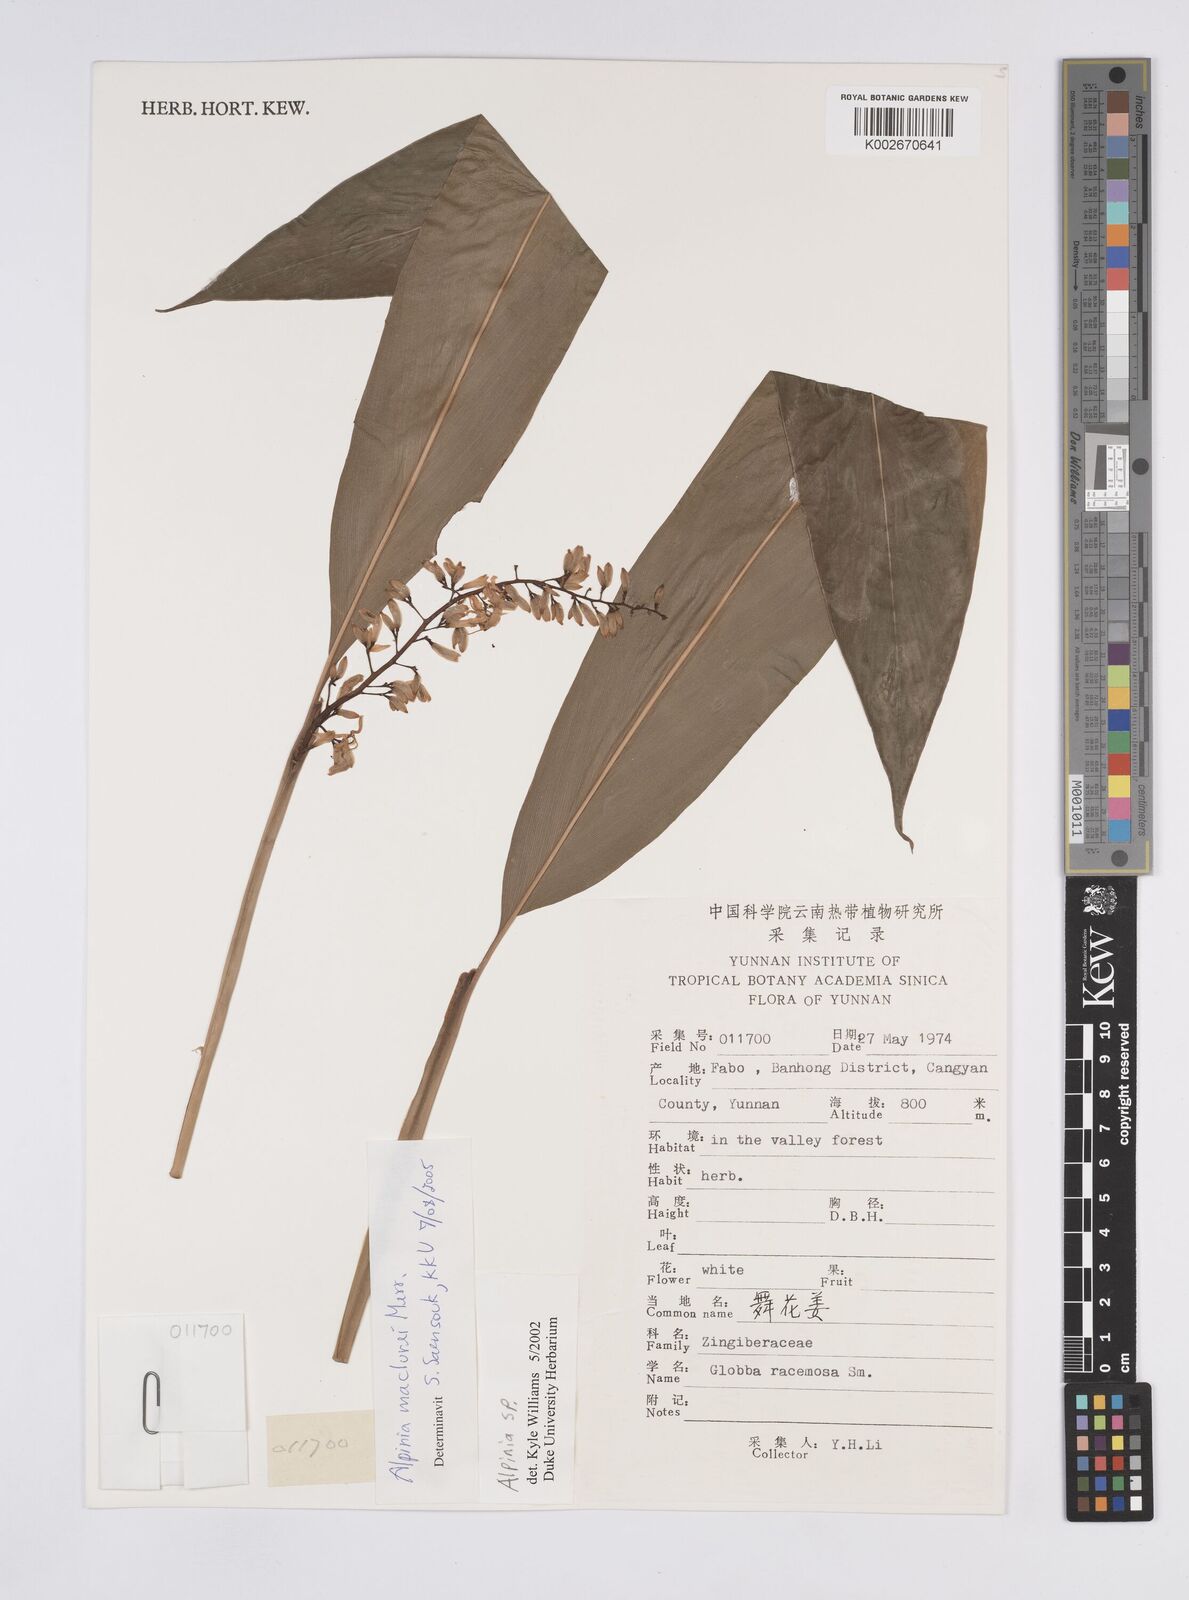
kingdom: Plantae
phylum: Tracheophyta
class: Liliopsida
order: Zingiberales
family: Zingiberaceae
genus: Alpinia
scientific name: Alpinia maclurei
